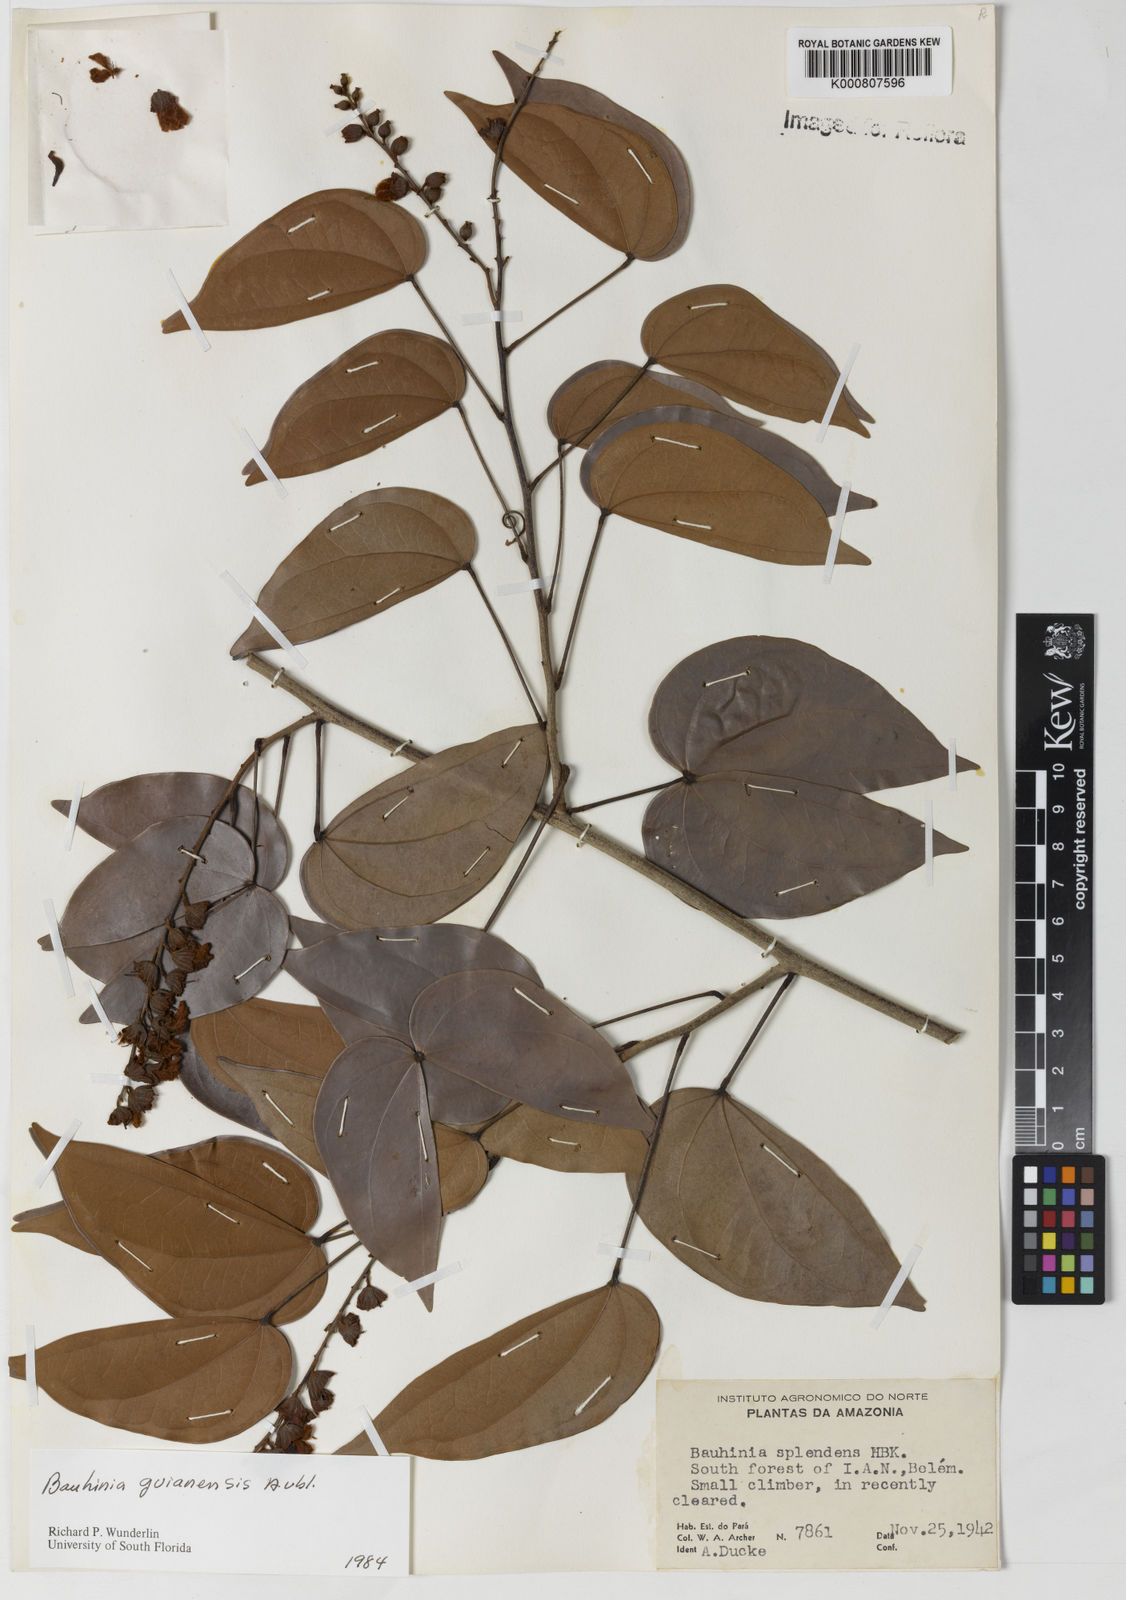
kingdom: Plantae
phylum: Tracheophyta
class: Magnoliopsida
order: Fabales
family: Fabaceae
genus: Schnella
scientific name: Schnella guianensis
